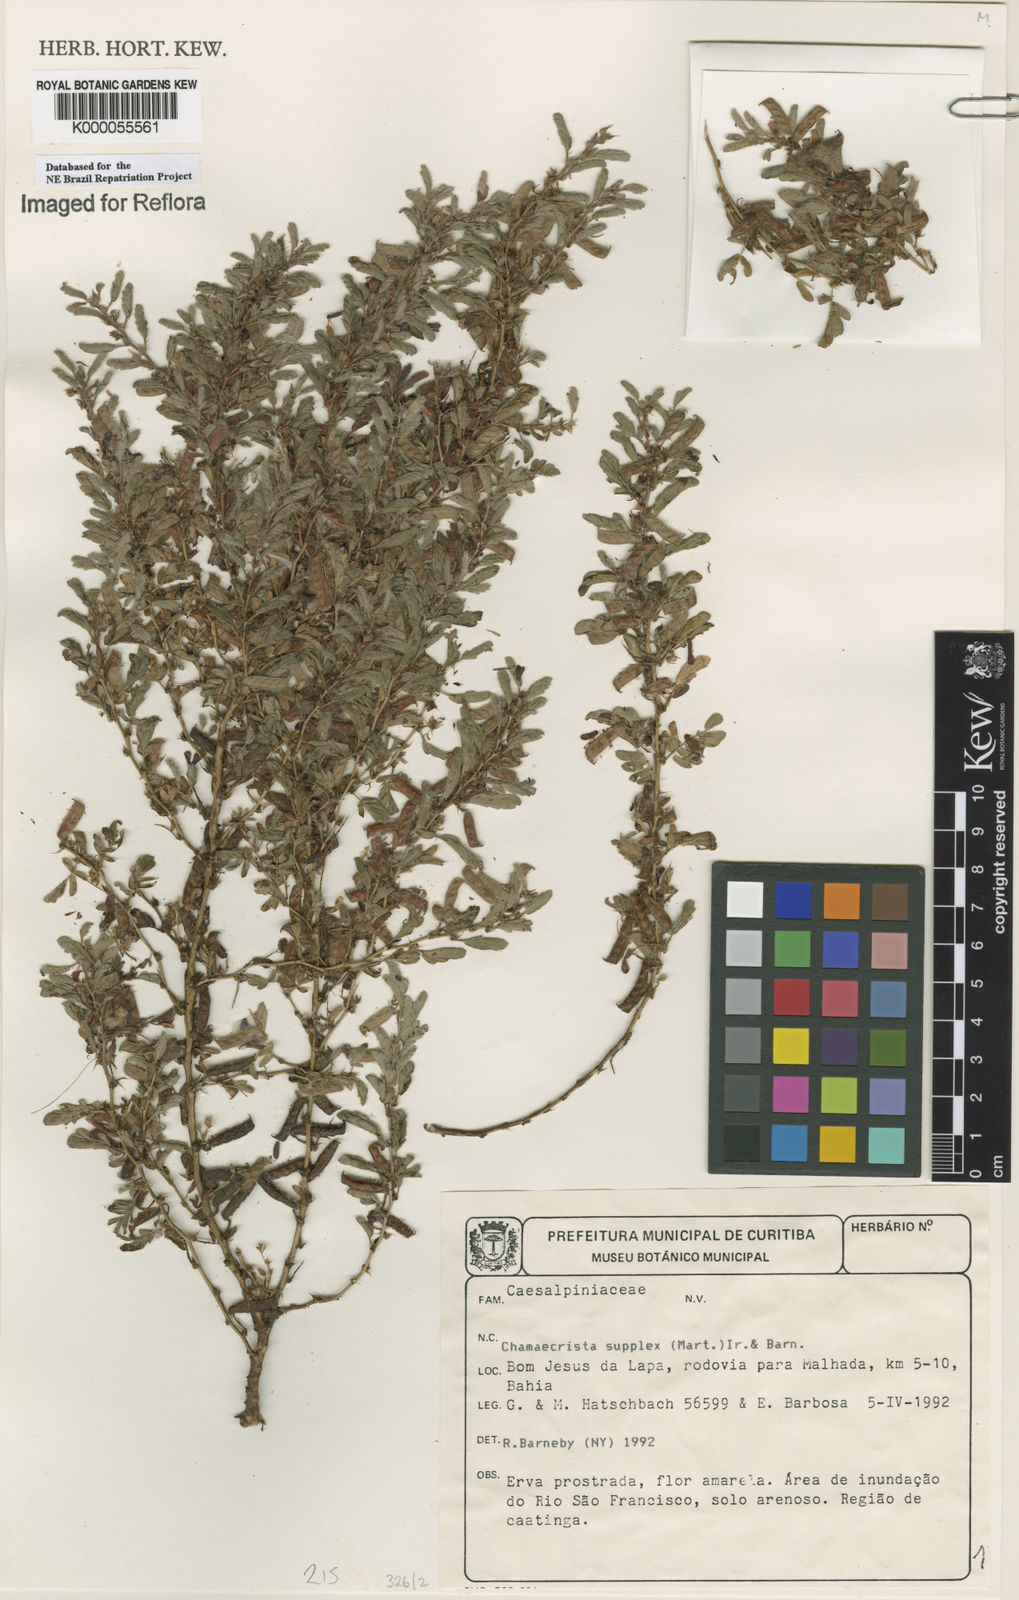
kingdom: Plantae
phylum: Tracheophyta
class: Magnoliopsida
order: Fabales
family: Fabaceae
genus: Chamaecrista
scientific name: Chamaecrista
